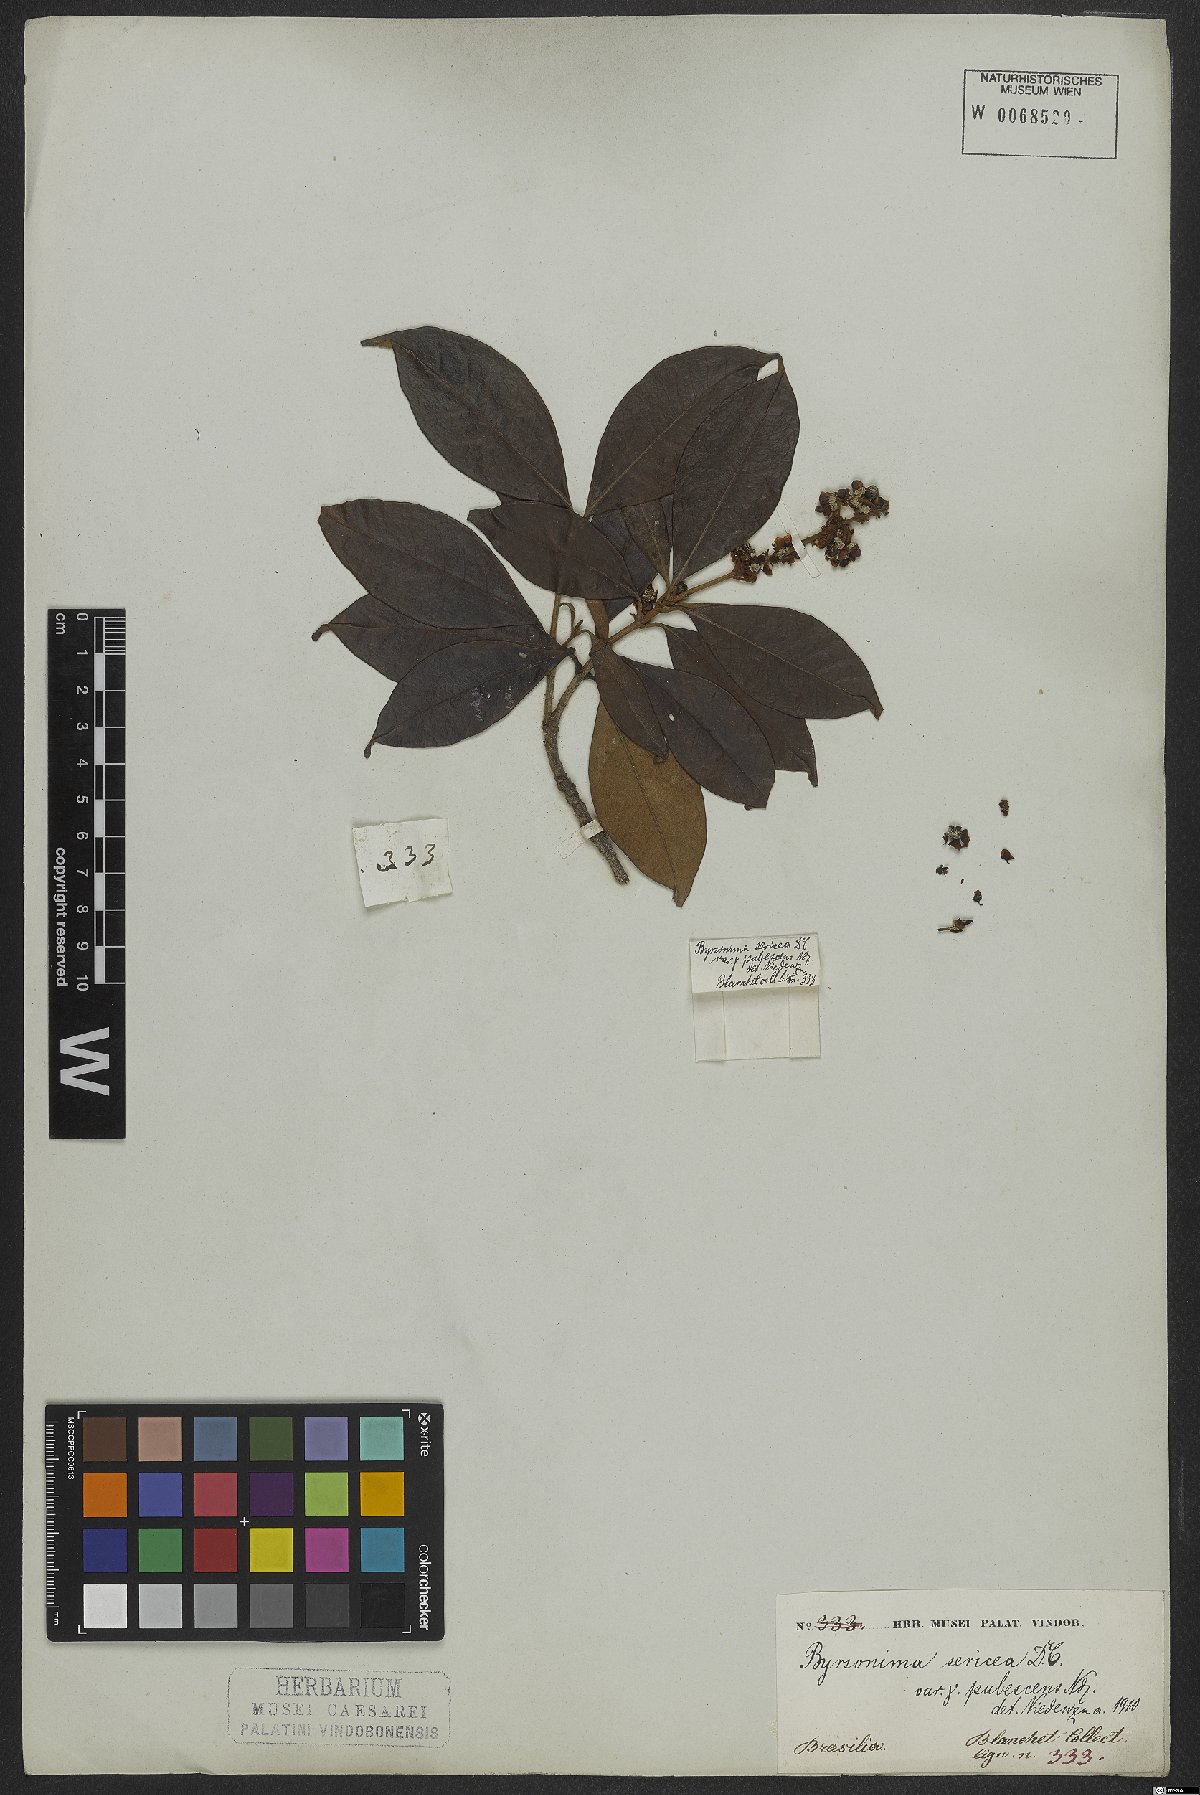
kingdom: Plantae
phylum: Tracheophyta
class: Magnoliopsida
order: Malpighiales
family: Malpighiaceae
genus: Byrsonima
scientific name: Byrsonima sericea
